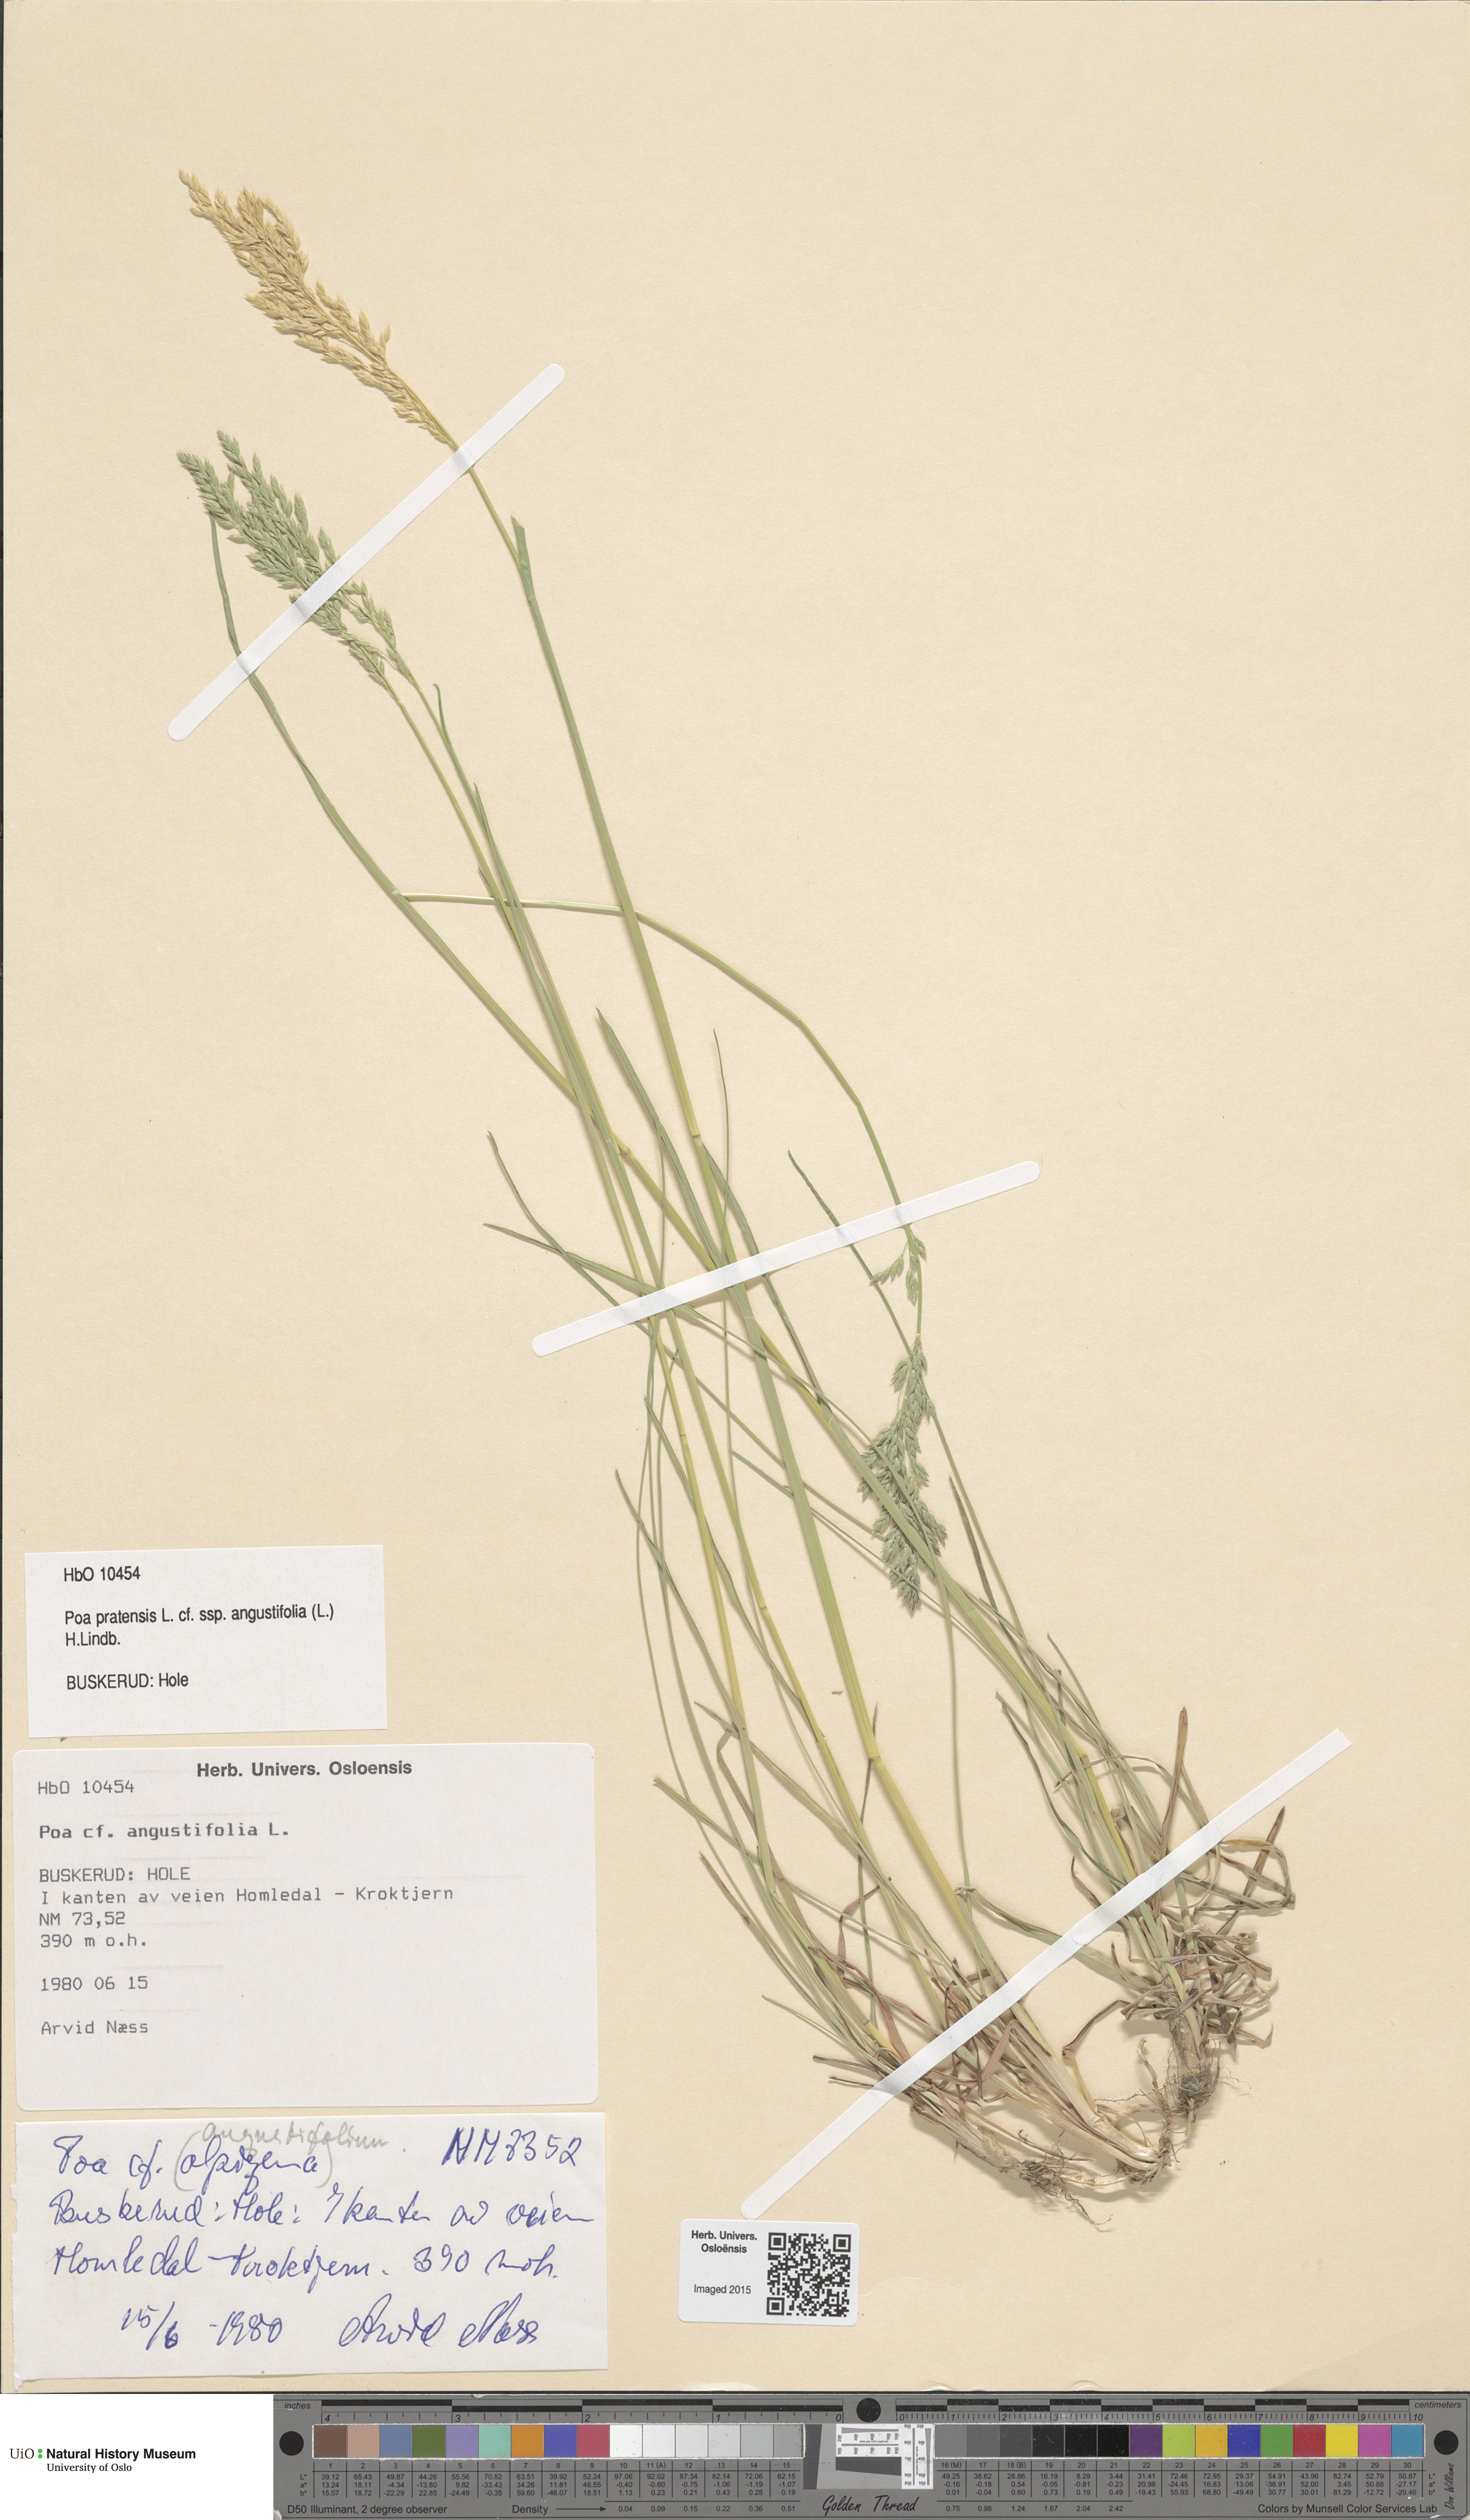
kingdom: Plantae
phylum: Tracheophyta
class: Liliopsida
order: Poales
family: Poaceae
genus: Poa
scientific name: Poa angustifolia
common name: Narrow-leaved meadow-grass
